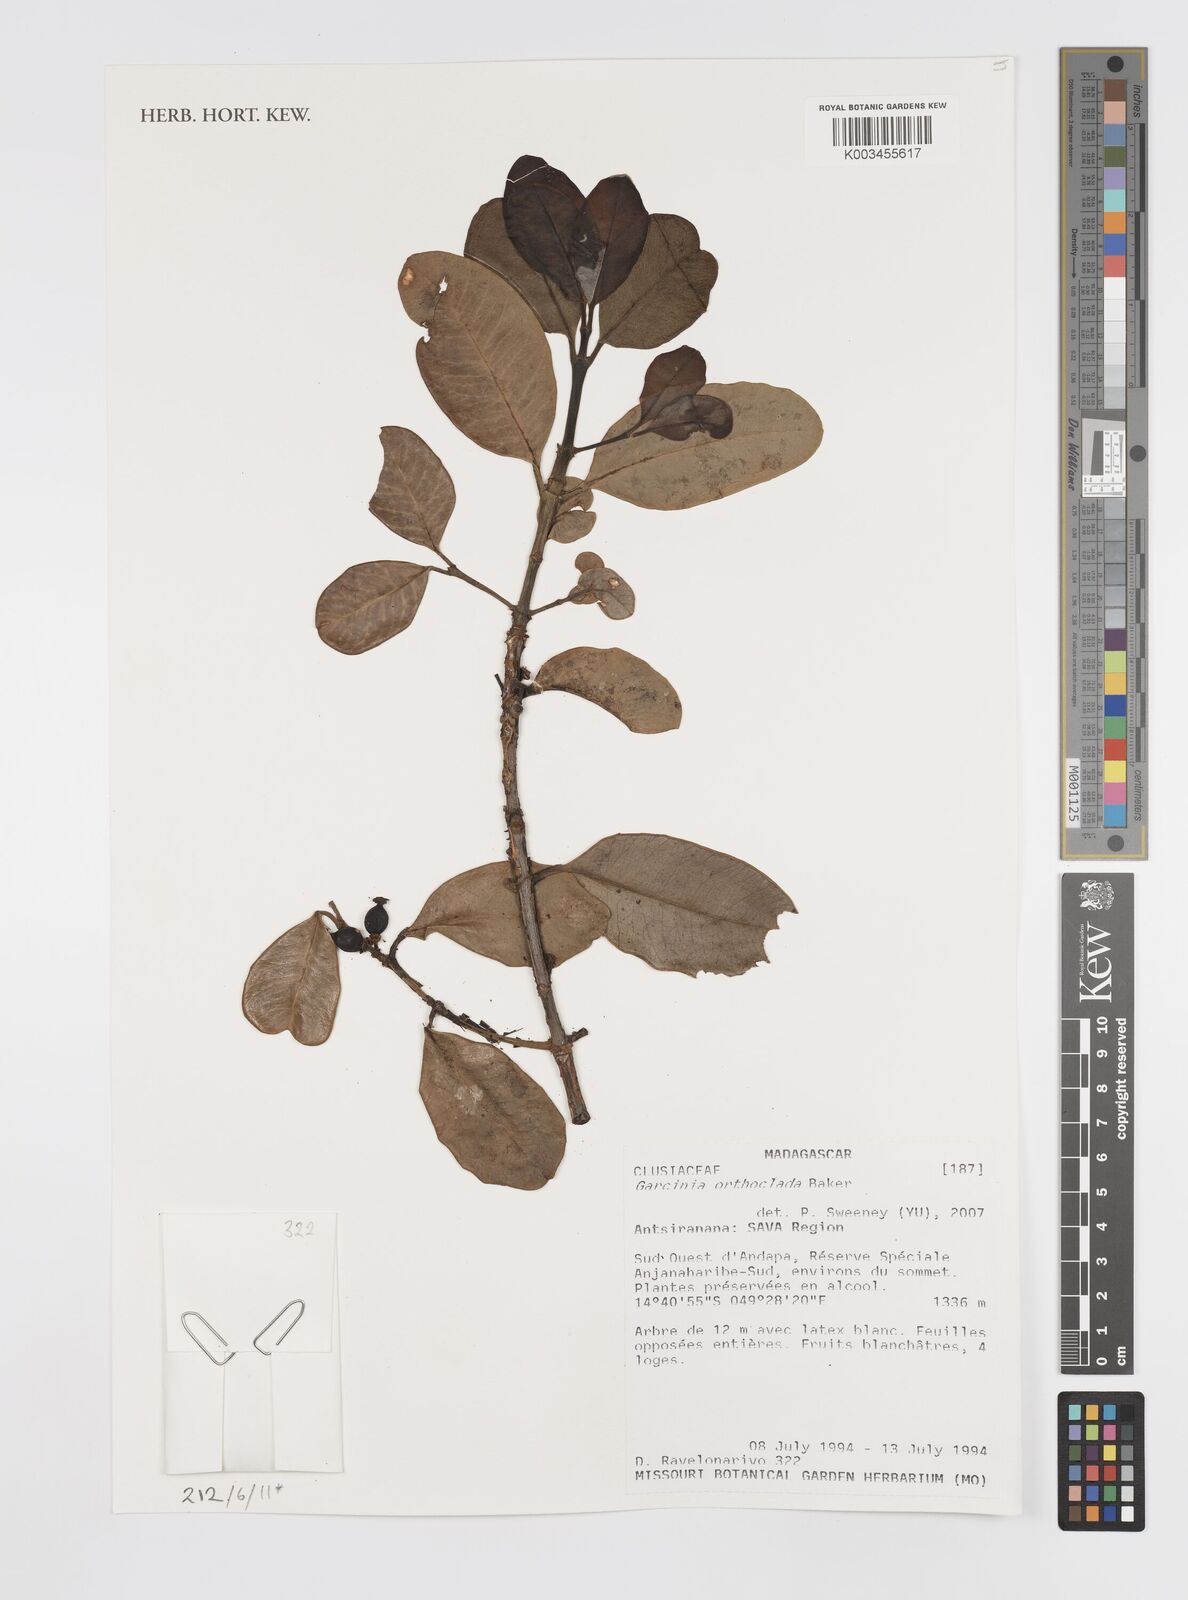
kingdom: Plantae
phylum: Tracheophyta
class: Magnoliopsida
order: Malpighiales
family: Clusiaceae
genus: Garcinia
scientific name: Garcinia orthoclada
